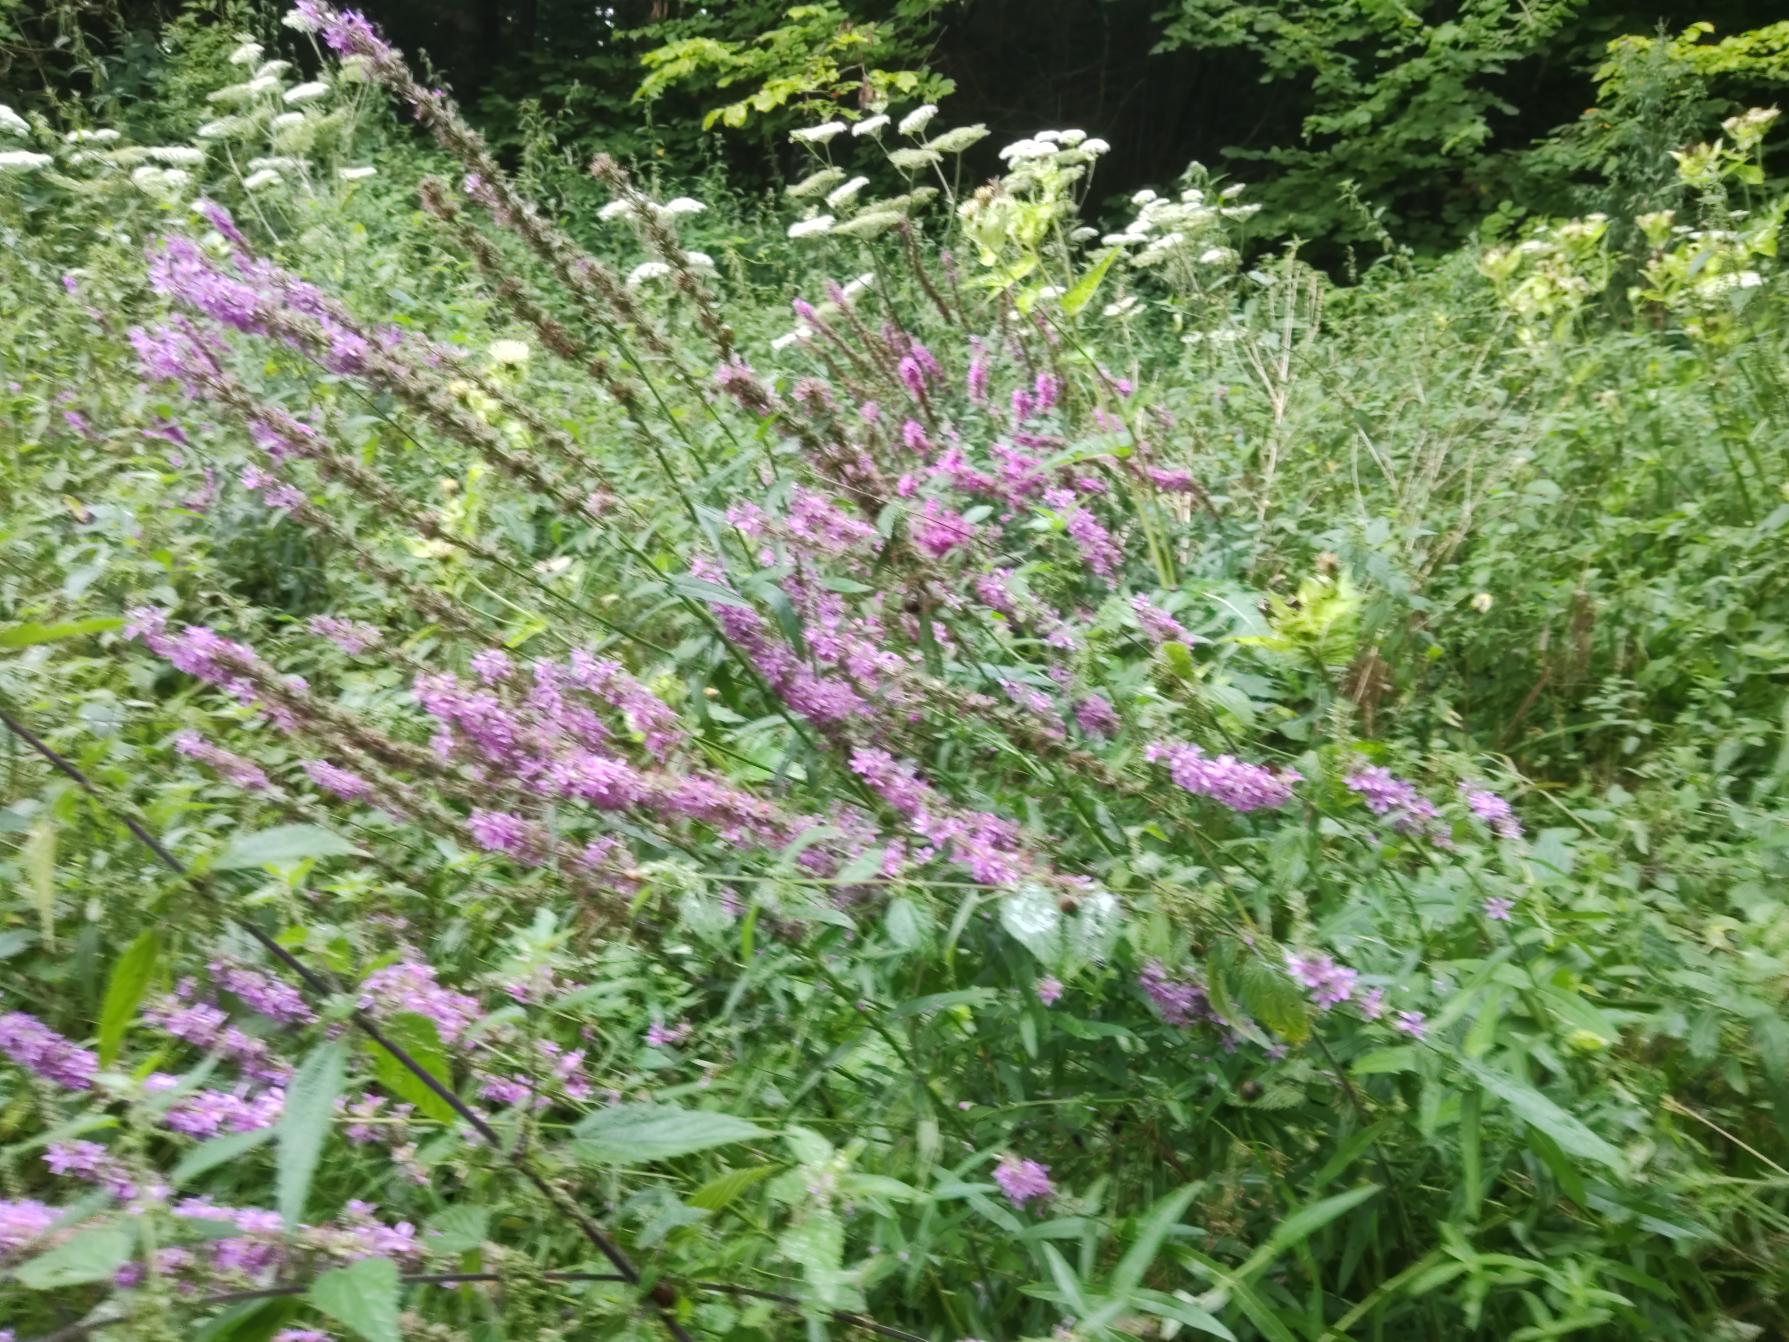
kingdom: Plantae
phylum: Tracheophyta
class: Magnoliopsida
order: Myrtales
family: Lythraceae
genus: Lythrum
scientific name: Lythrum salicaria
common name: Kattehale
